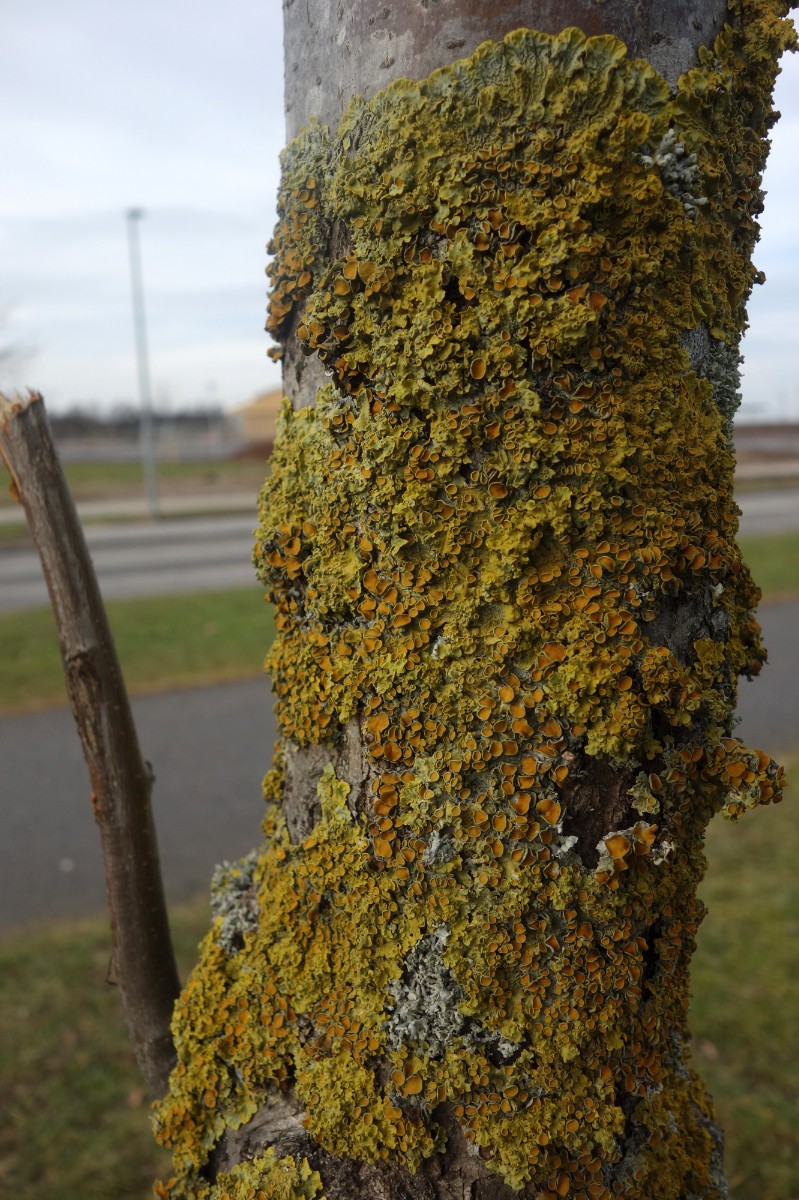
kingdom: Fungi
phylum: Ascomycota
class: Lecanoromycetes
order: Teloschistales
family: Teloschistaceae
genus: Xanthoria
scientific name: Xanthoria parietina
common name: almindelig væggelav
